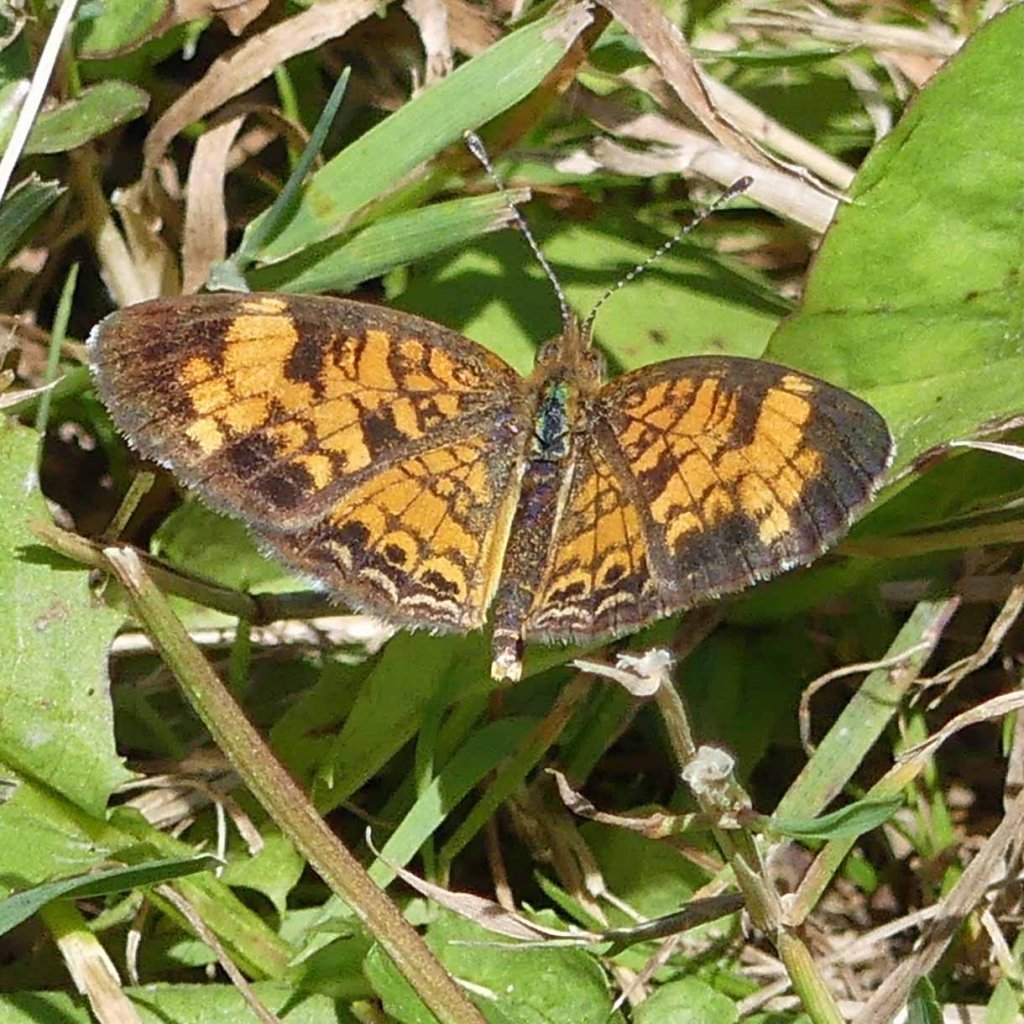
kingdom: Animalia
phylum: Arthropoda
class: Insecta
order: Lepidoptera
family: Nymphalidae
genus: Phyciodes
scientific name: Phyciodes tharos
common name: Pearl Crescent
